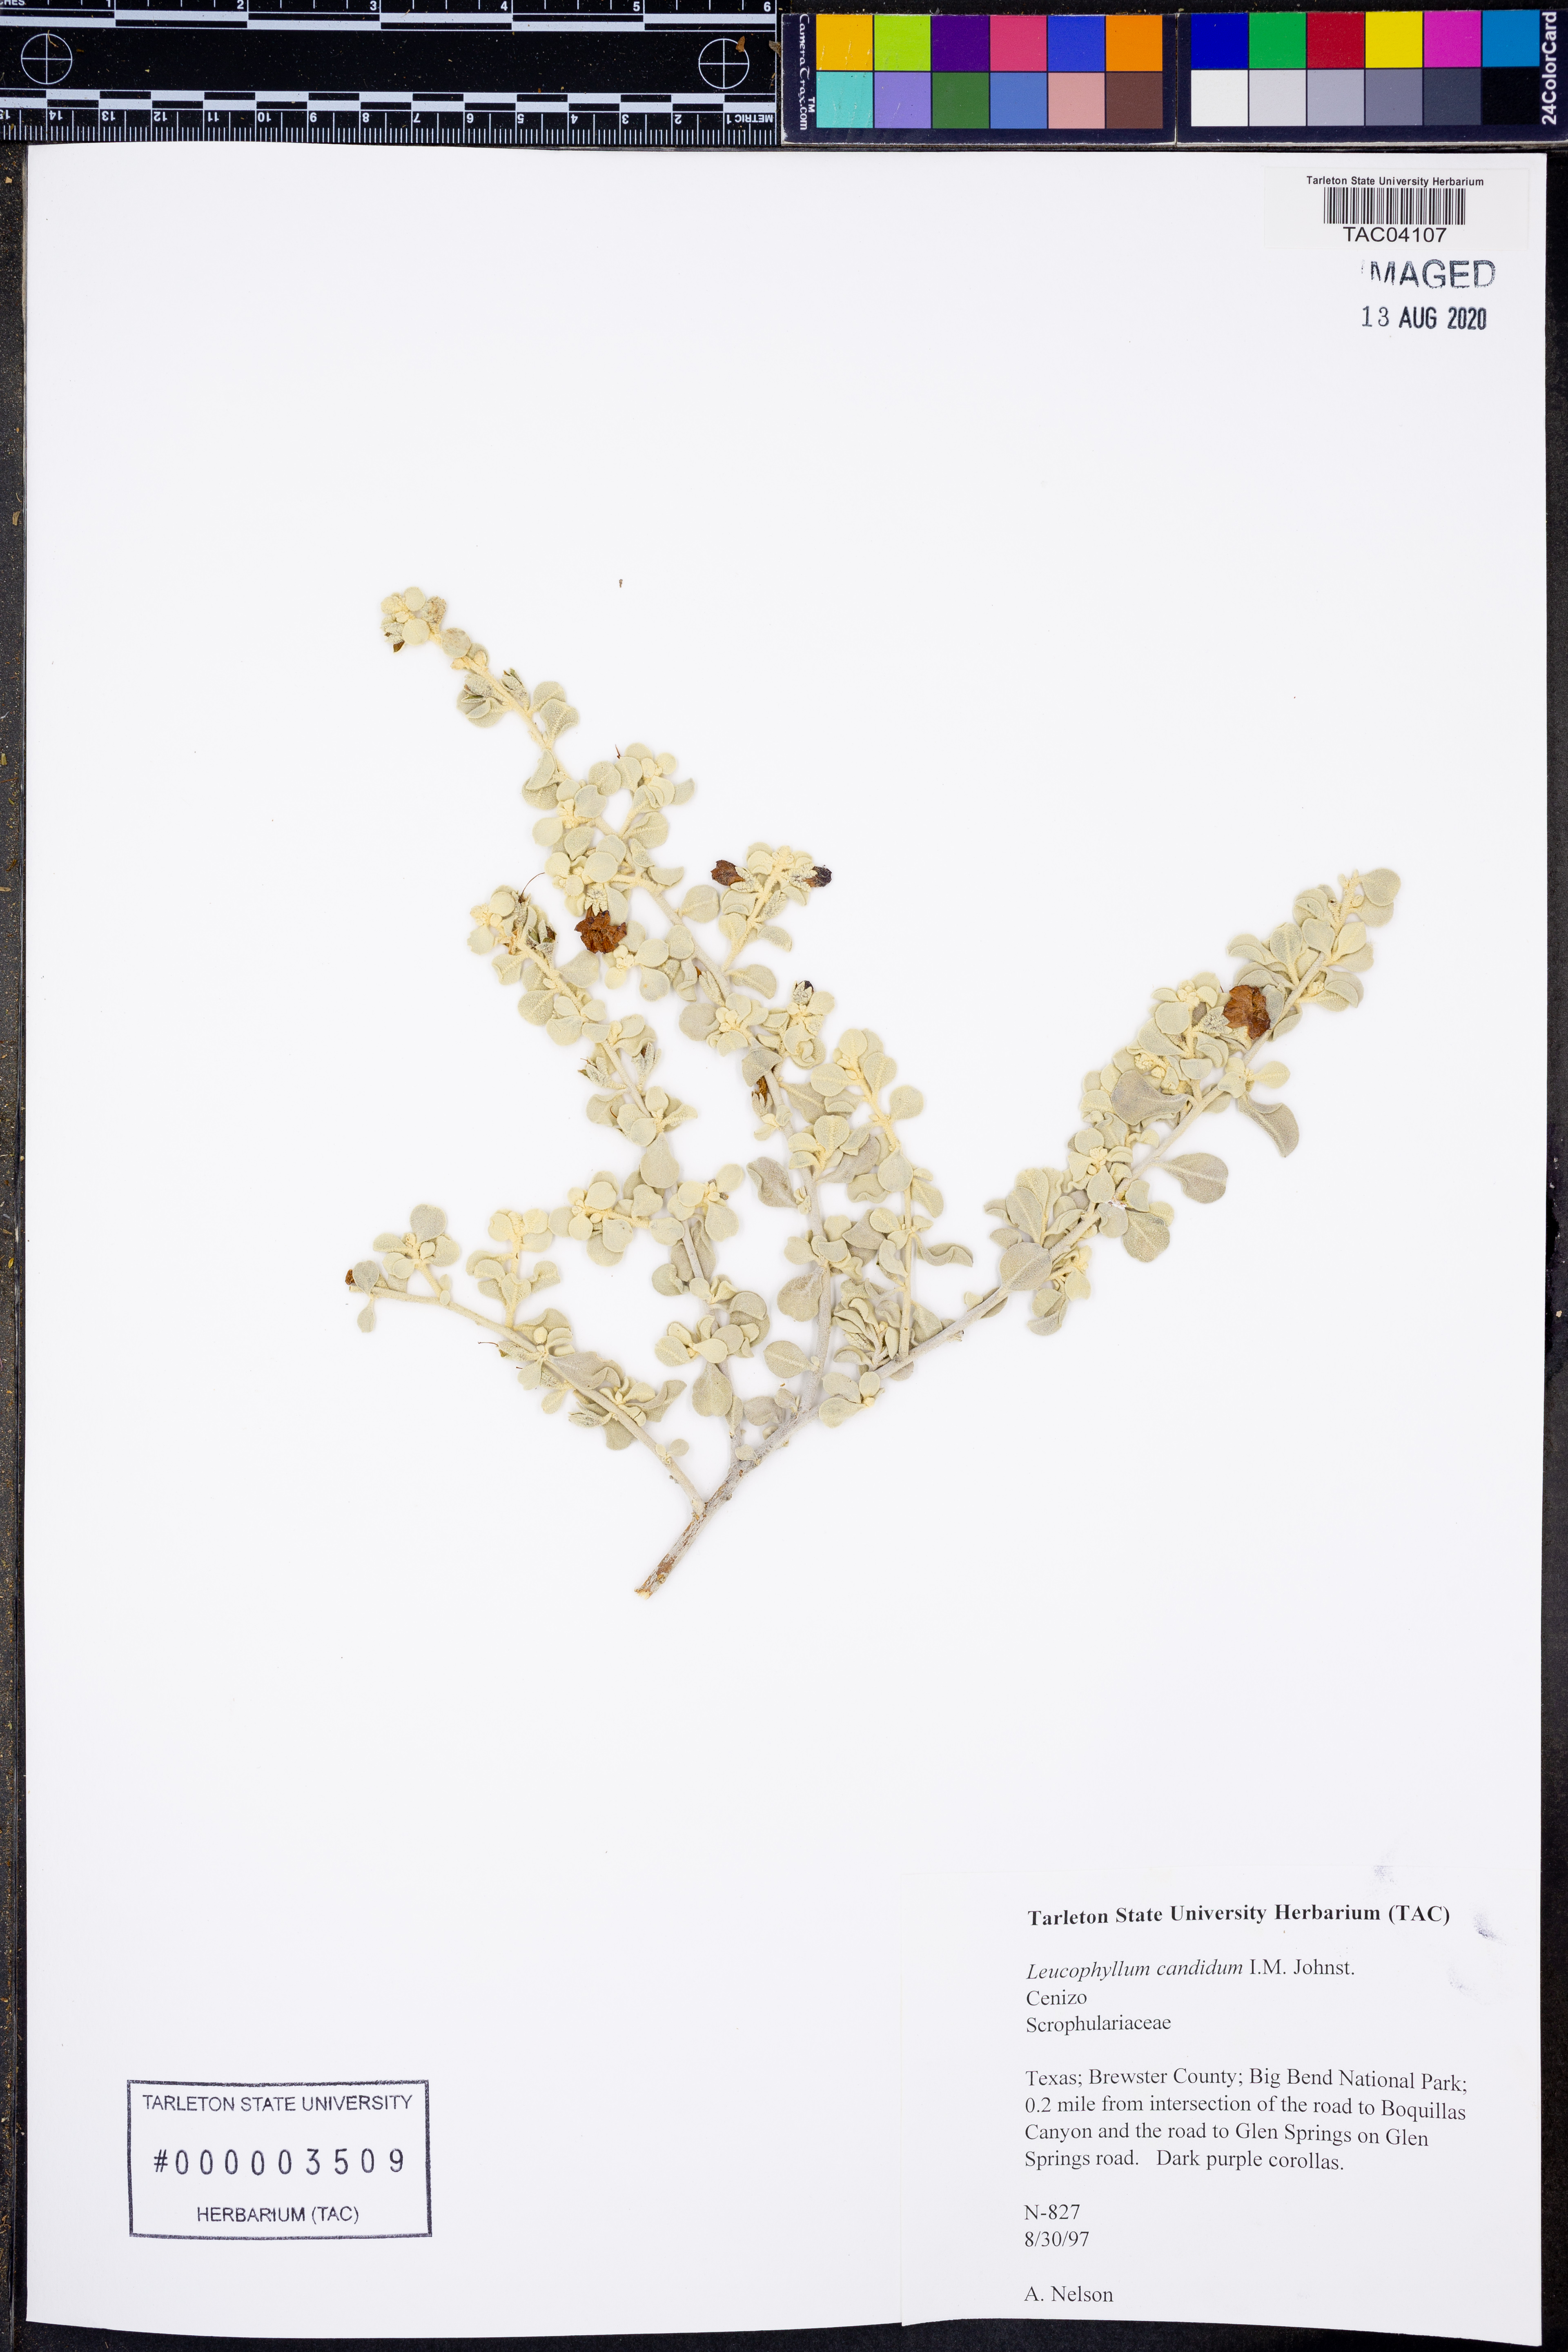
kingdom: Plantae
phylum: Tracheophyta
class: Magnoliopsida
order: Lamiales
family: Scrophulariaceae
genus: Leucophyllum
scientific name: Leucophyllum candidum
